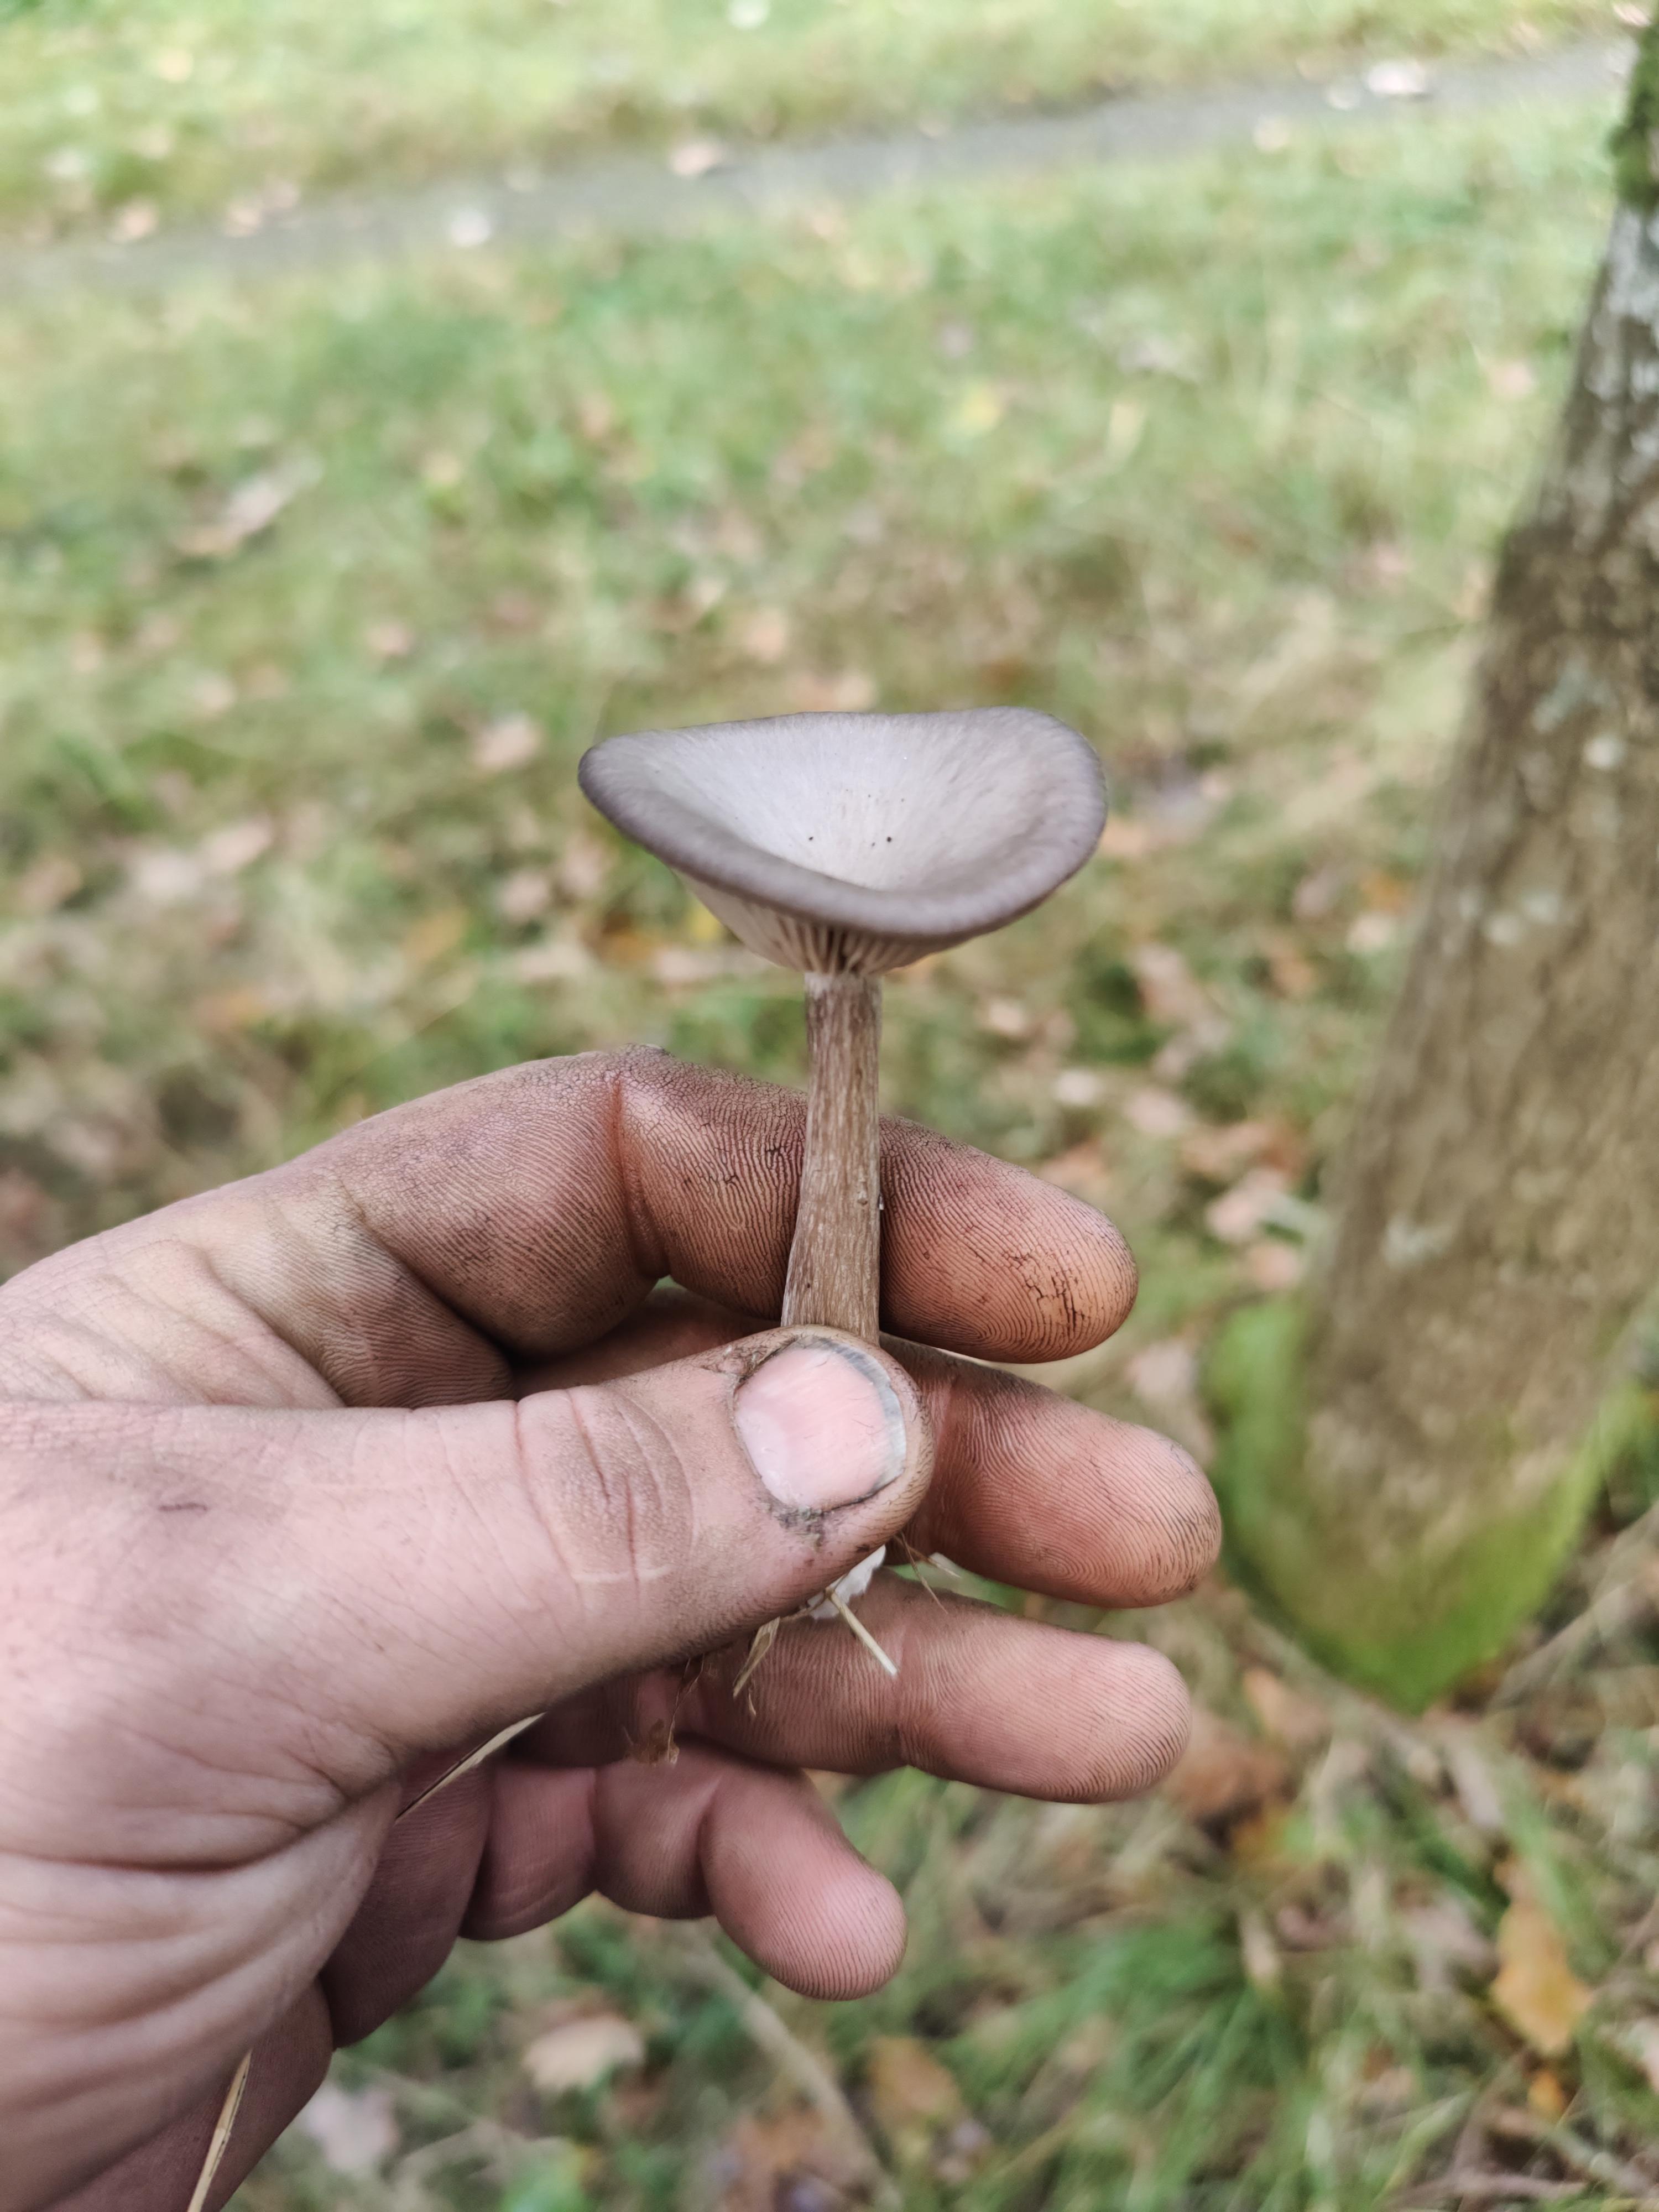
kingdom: Fungi
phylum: Basidiomycota
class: Agaricomycetes
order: Agaricales
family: Pseudoclitocybaceae
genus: Pseudoclitocybe
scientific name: Pseudoclitocybe cyathiformis
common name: almindelig bægertragthat
